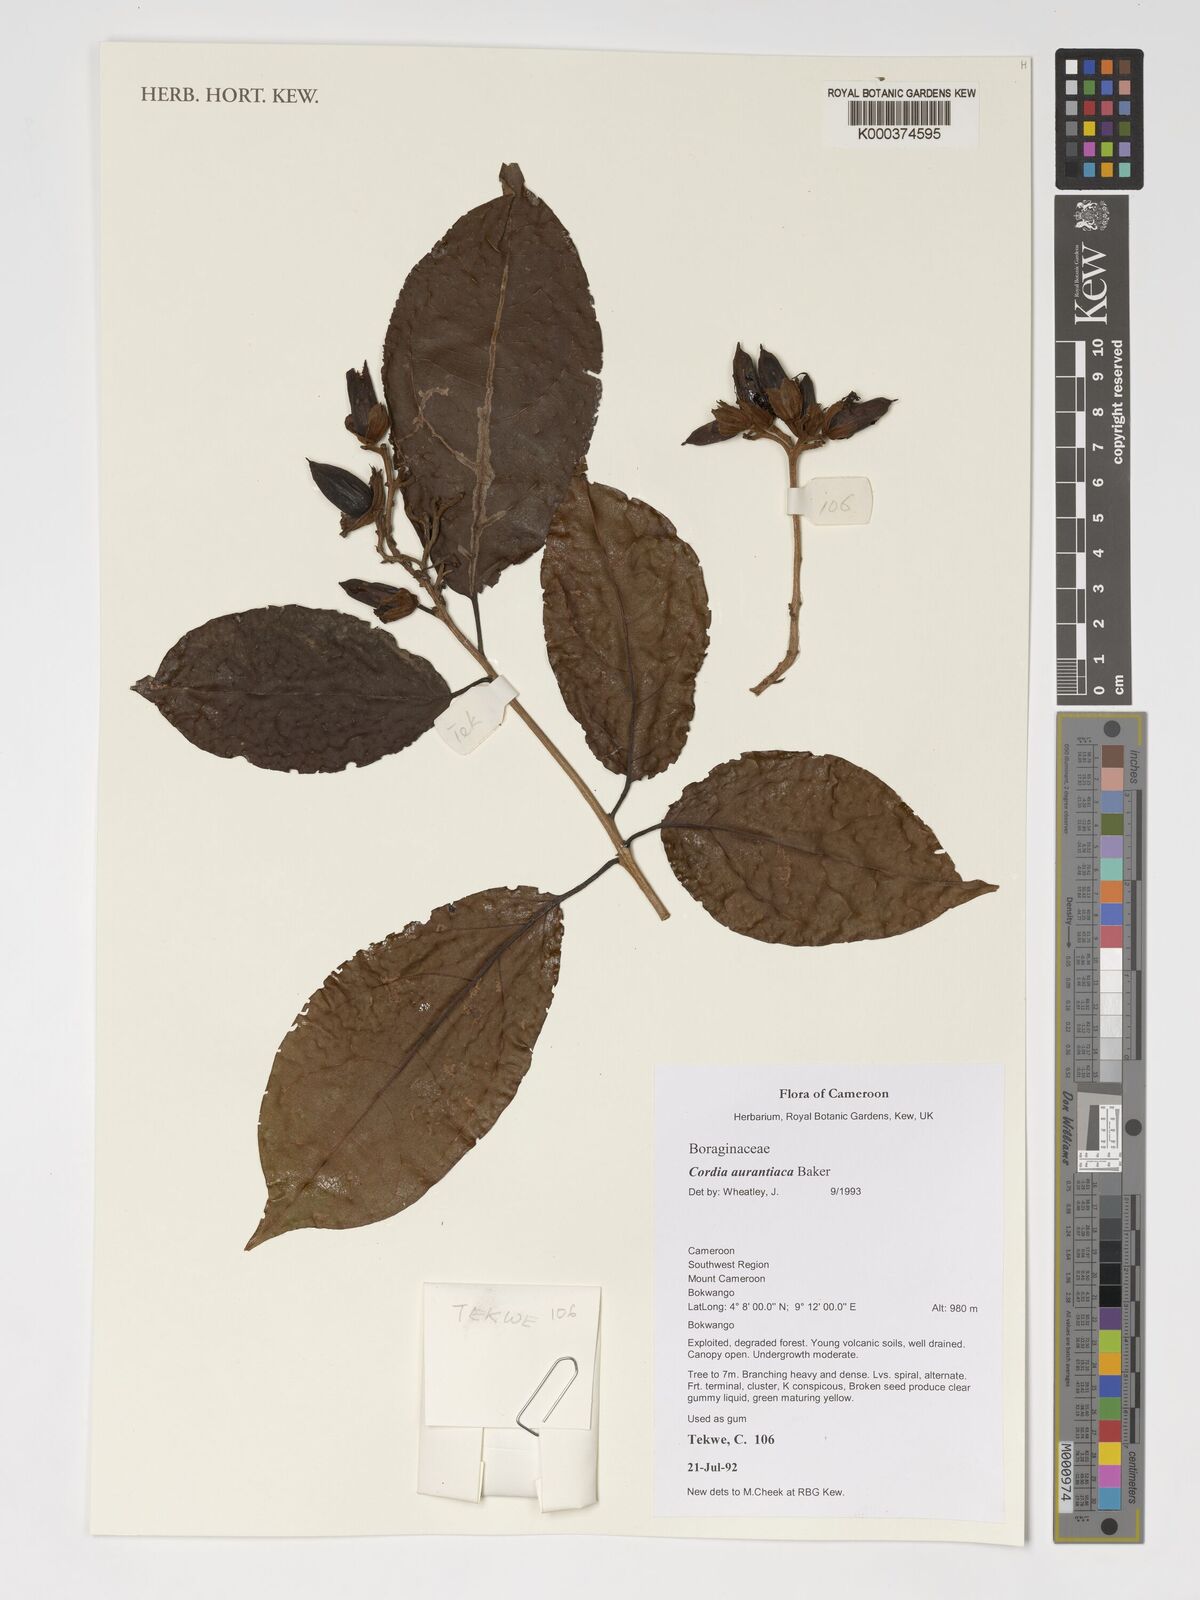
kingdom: Plantae
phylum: Tracheophyta
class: Magnoliopsida
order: Boraginales
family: Cordiaceae
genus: Cordia
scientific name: Cordia aurantiaca
